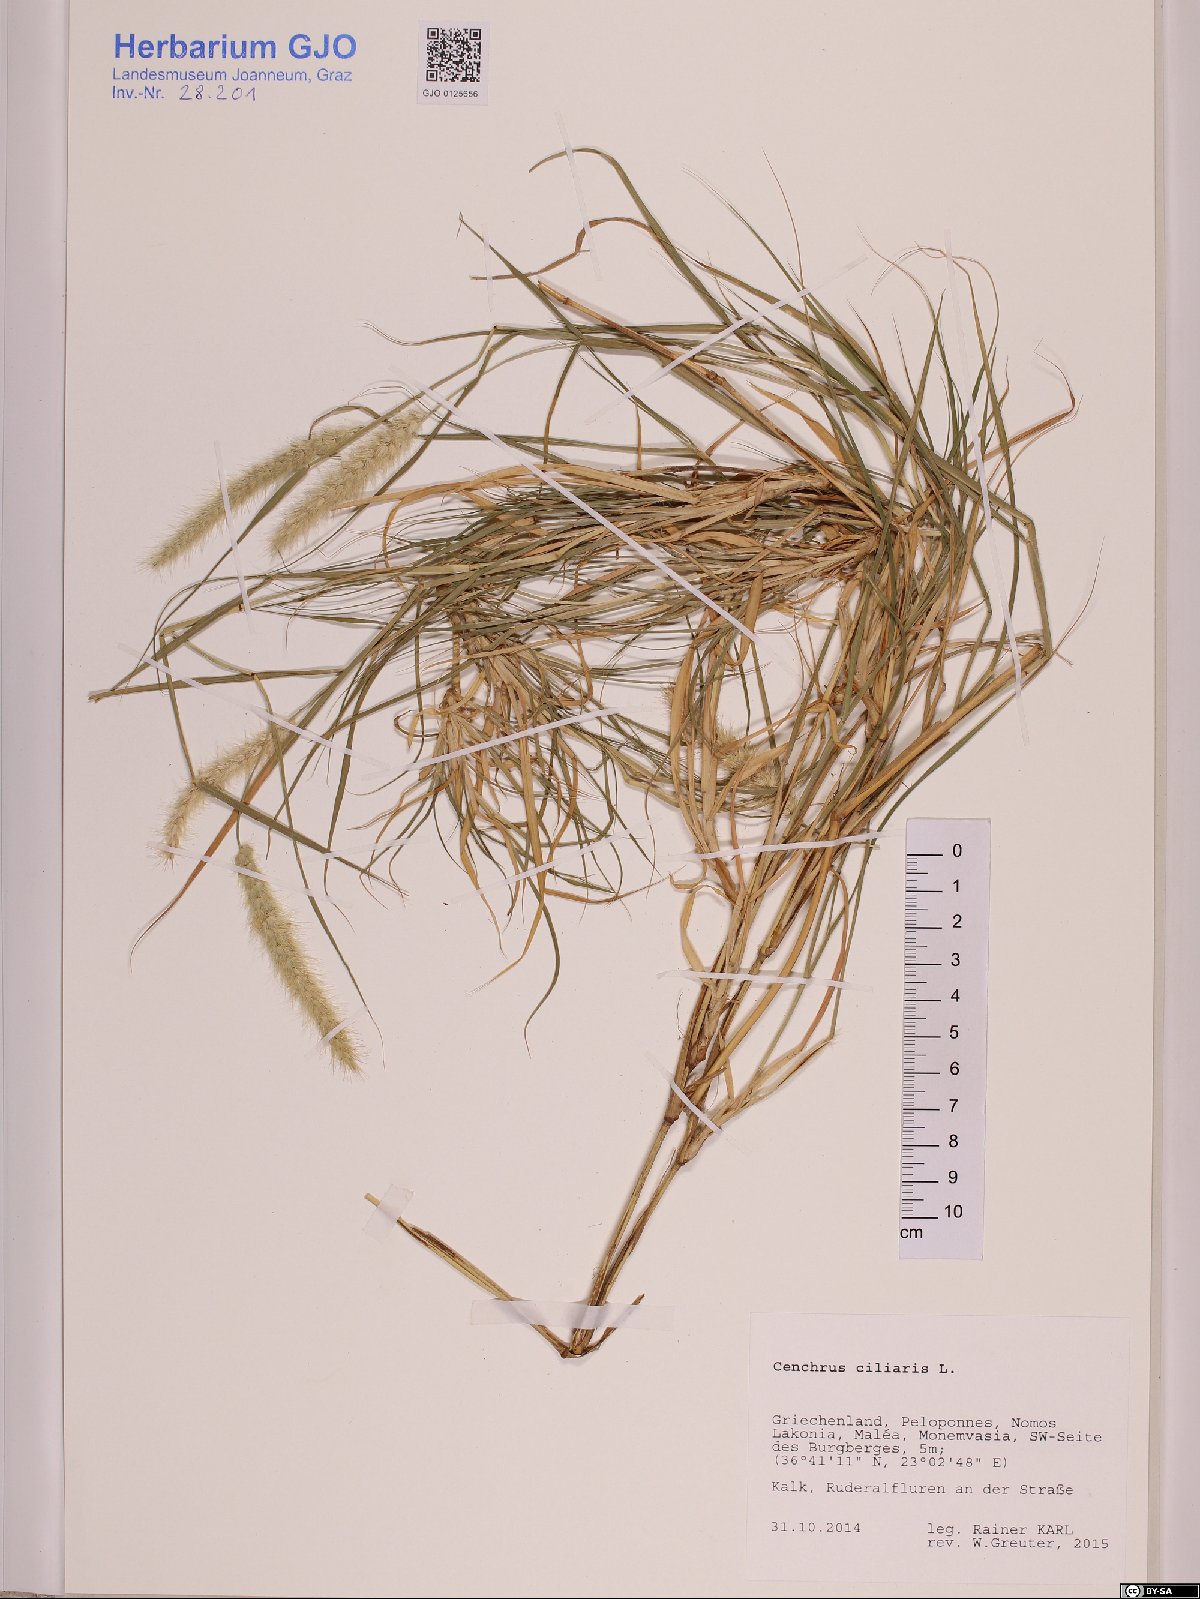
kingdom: Plantae
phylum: Tracheophyta
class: Liliopsida
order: Poales
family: Poaceae
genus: Cenchrus
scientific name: Cenchrus ciliaris
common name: Buffelgrass
